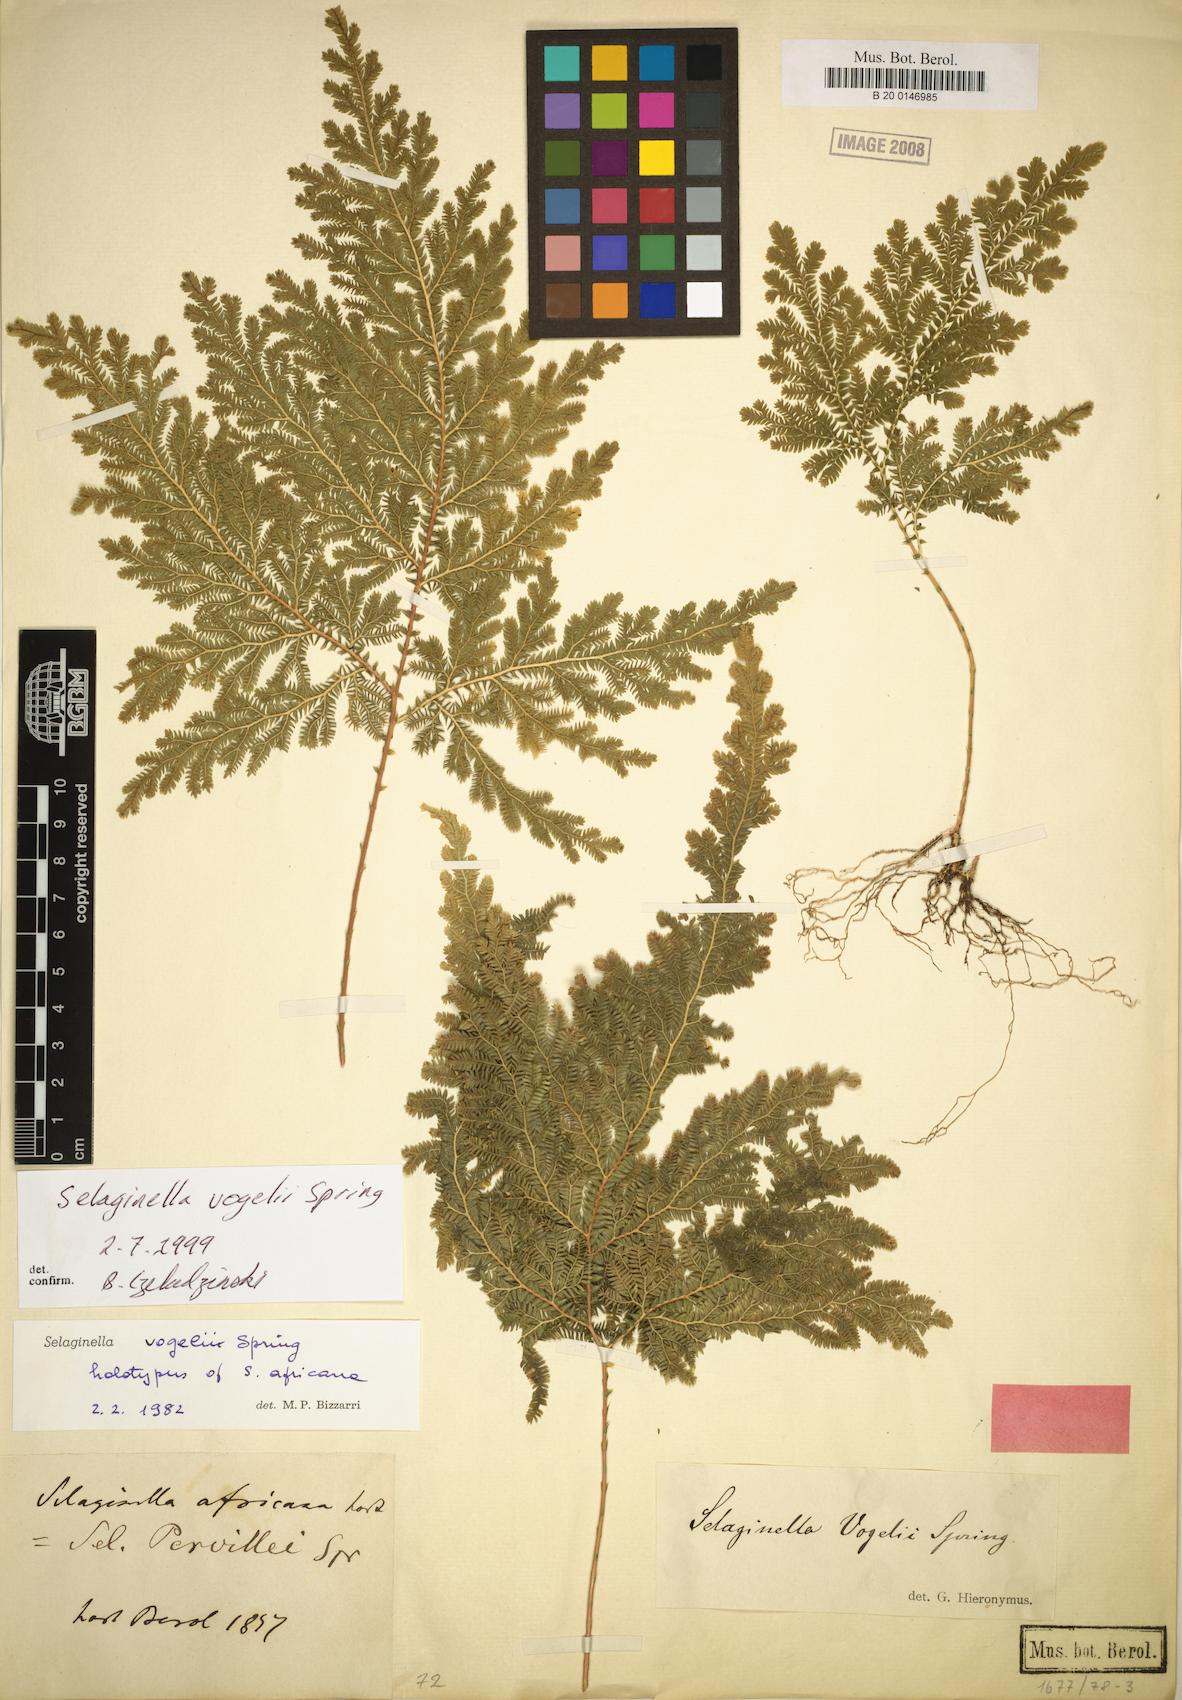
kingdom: Plantae
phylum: Tracheophyta
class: Lycopodiopsida
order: Selaginellales
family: Selaginellaceae
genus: Selaginella
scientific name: Selaginella vogelii
